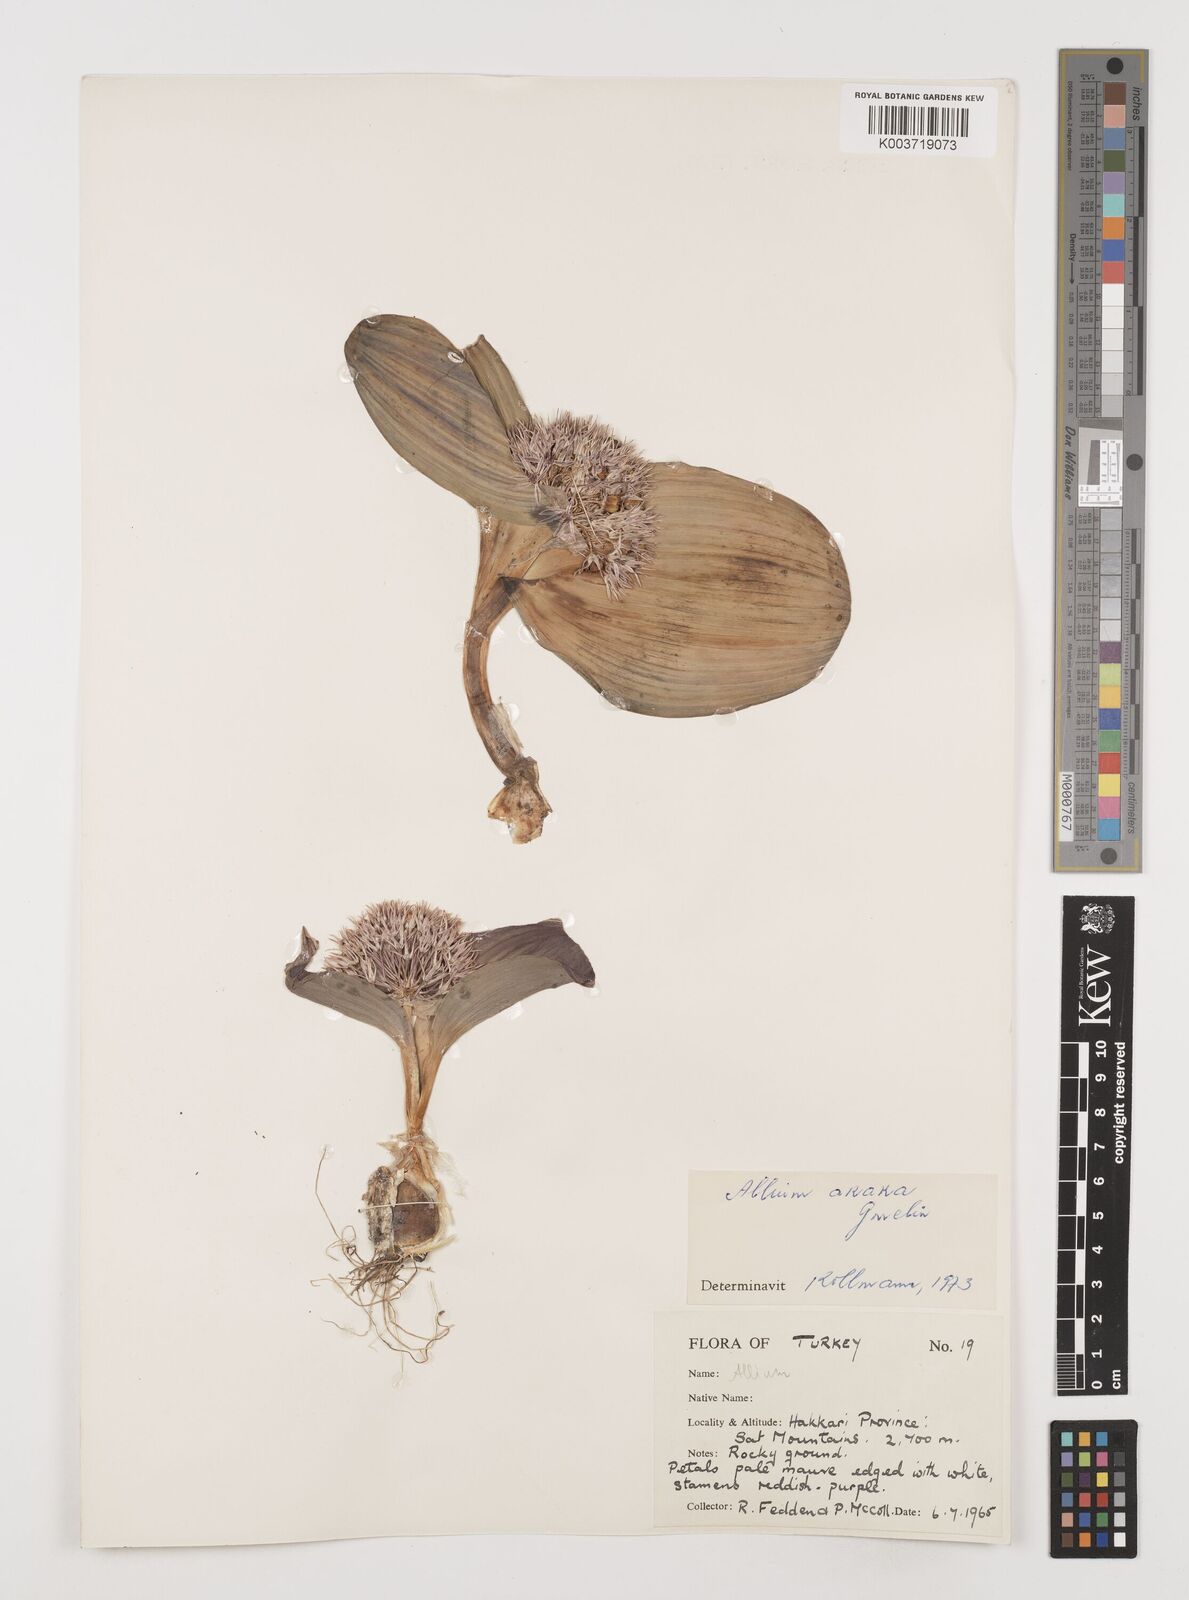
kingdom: Plantae
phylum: Tracheophyta
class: Liliopsida
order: Asparagales
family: Amaryllidaceae
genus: Allium
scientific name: Allium akaka
